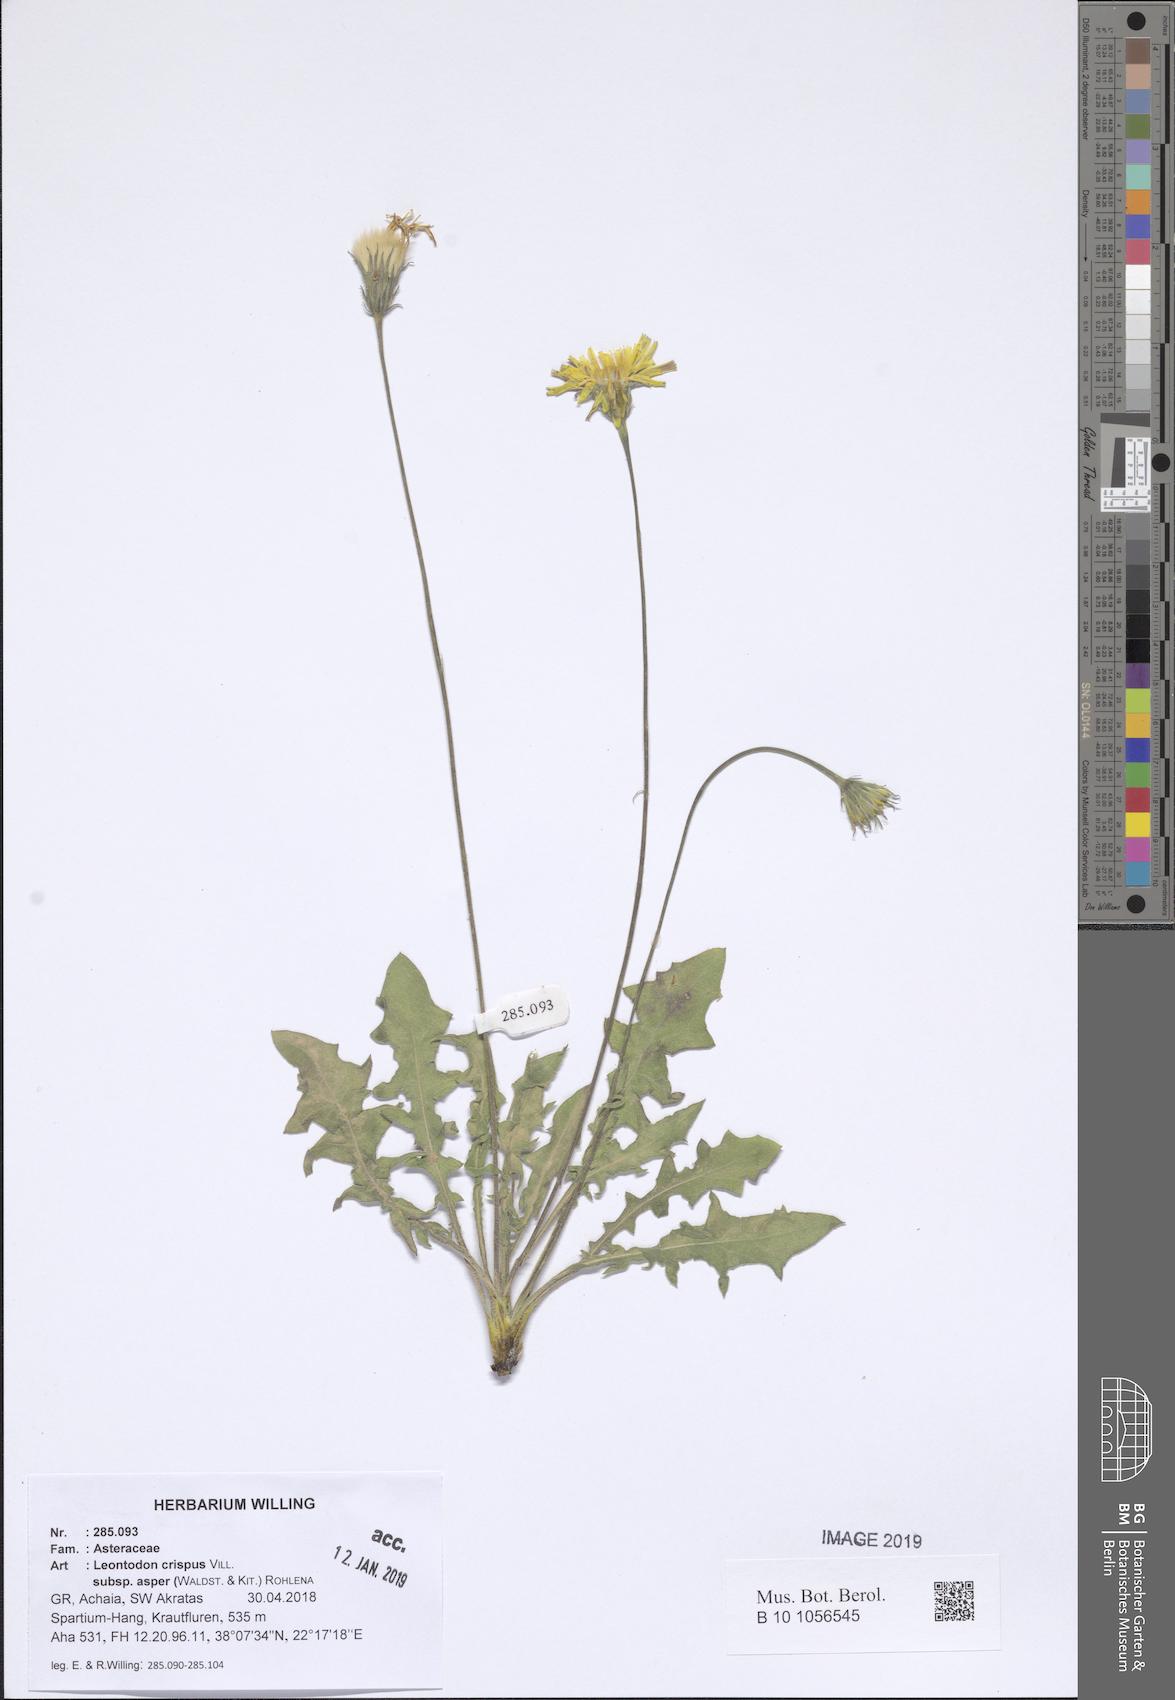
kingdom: Plantae
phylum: Tracheophyta
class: Magnoliopsida
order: Asterales
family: Asteraceae
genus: Leontodon
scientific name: Leontodon biscutellifolius
